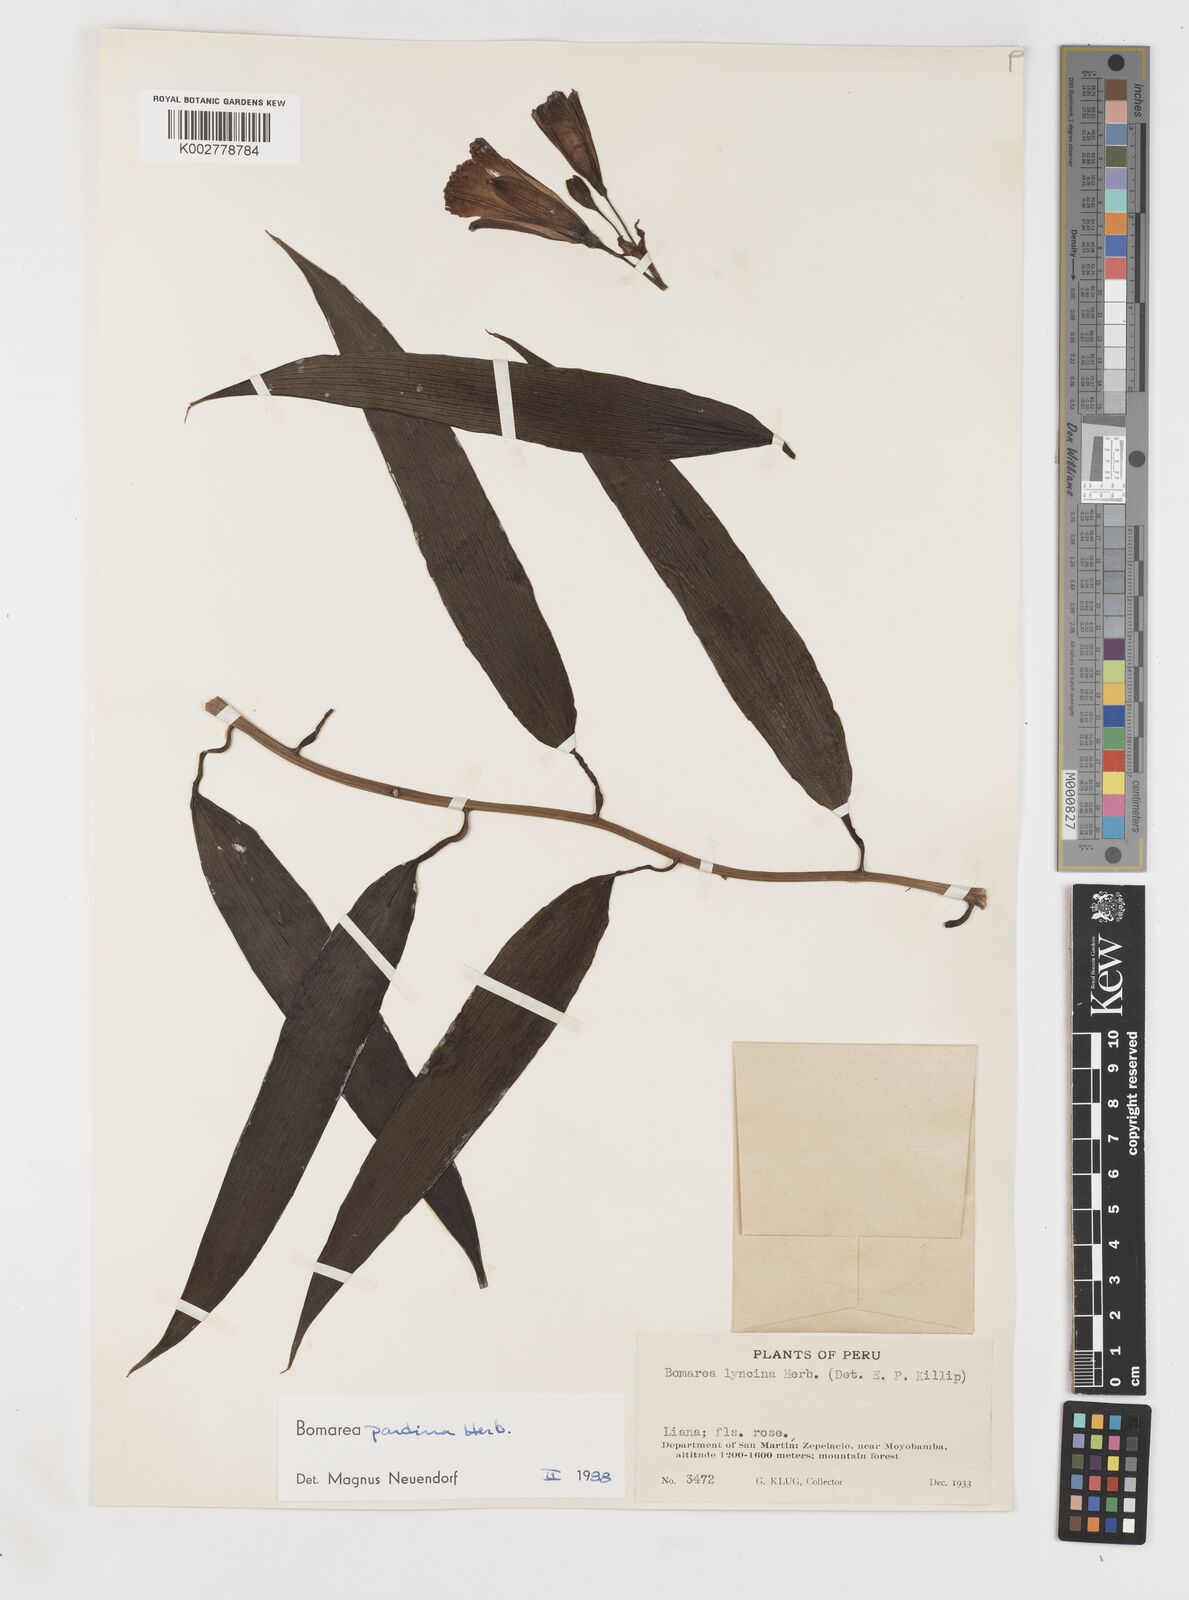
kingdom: Plantae
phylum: Tracheophyta
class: Liliopsida
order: Liliales
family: Alstroemeriaceae
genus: Bomarea
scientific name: Bomarea pardina
